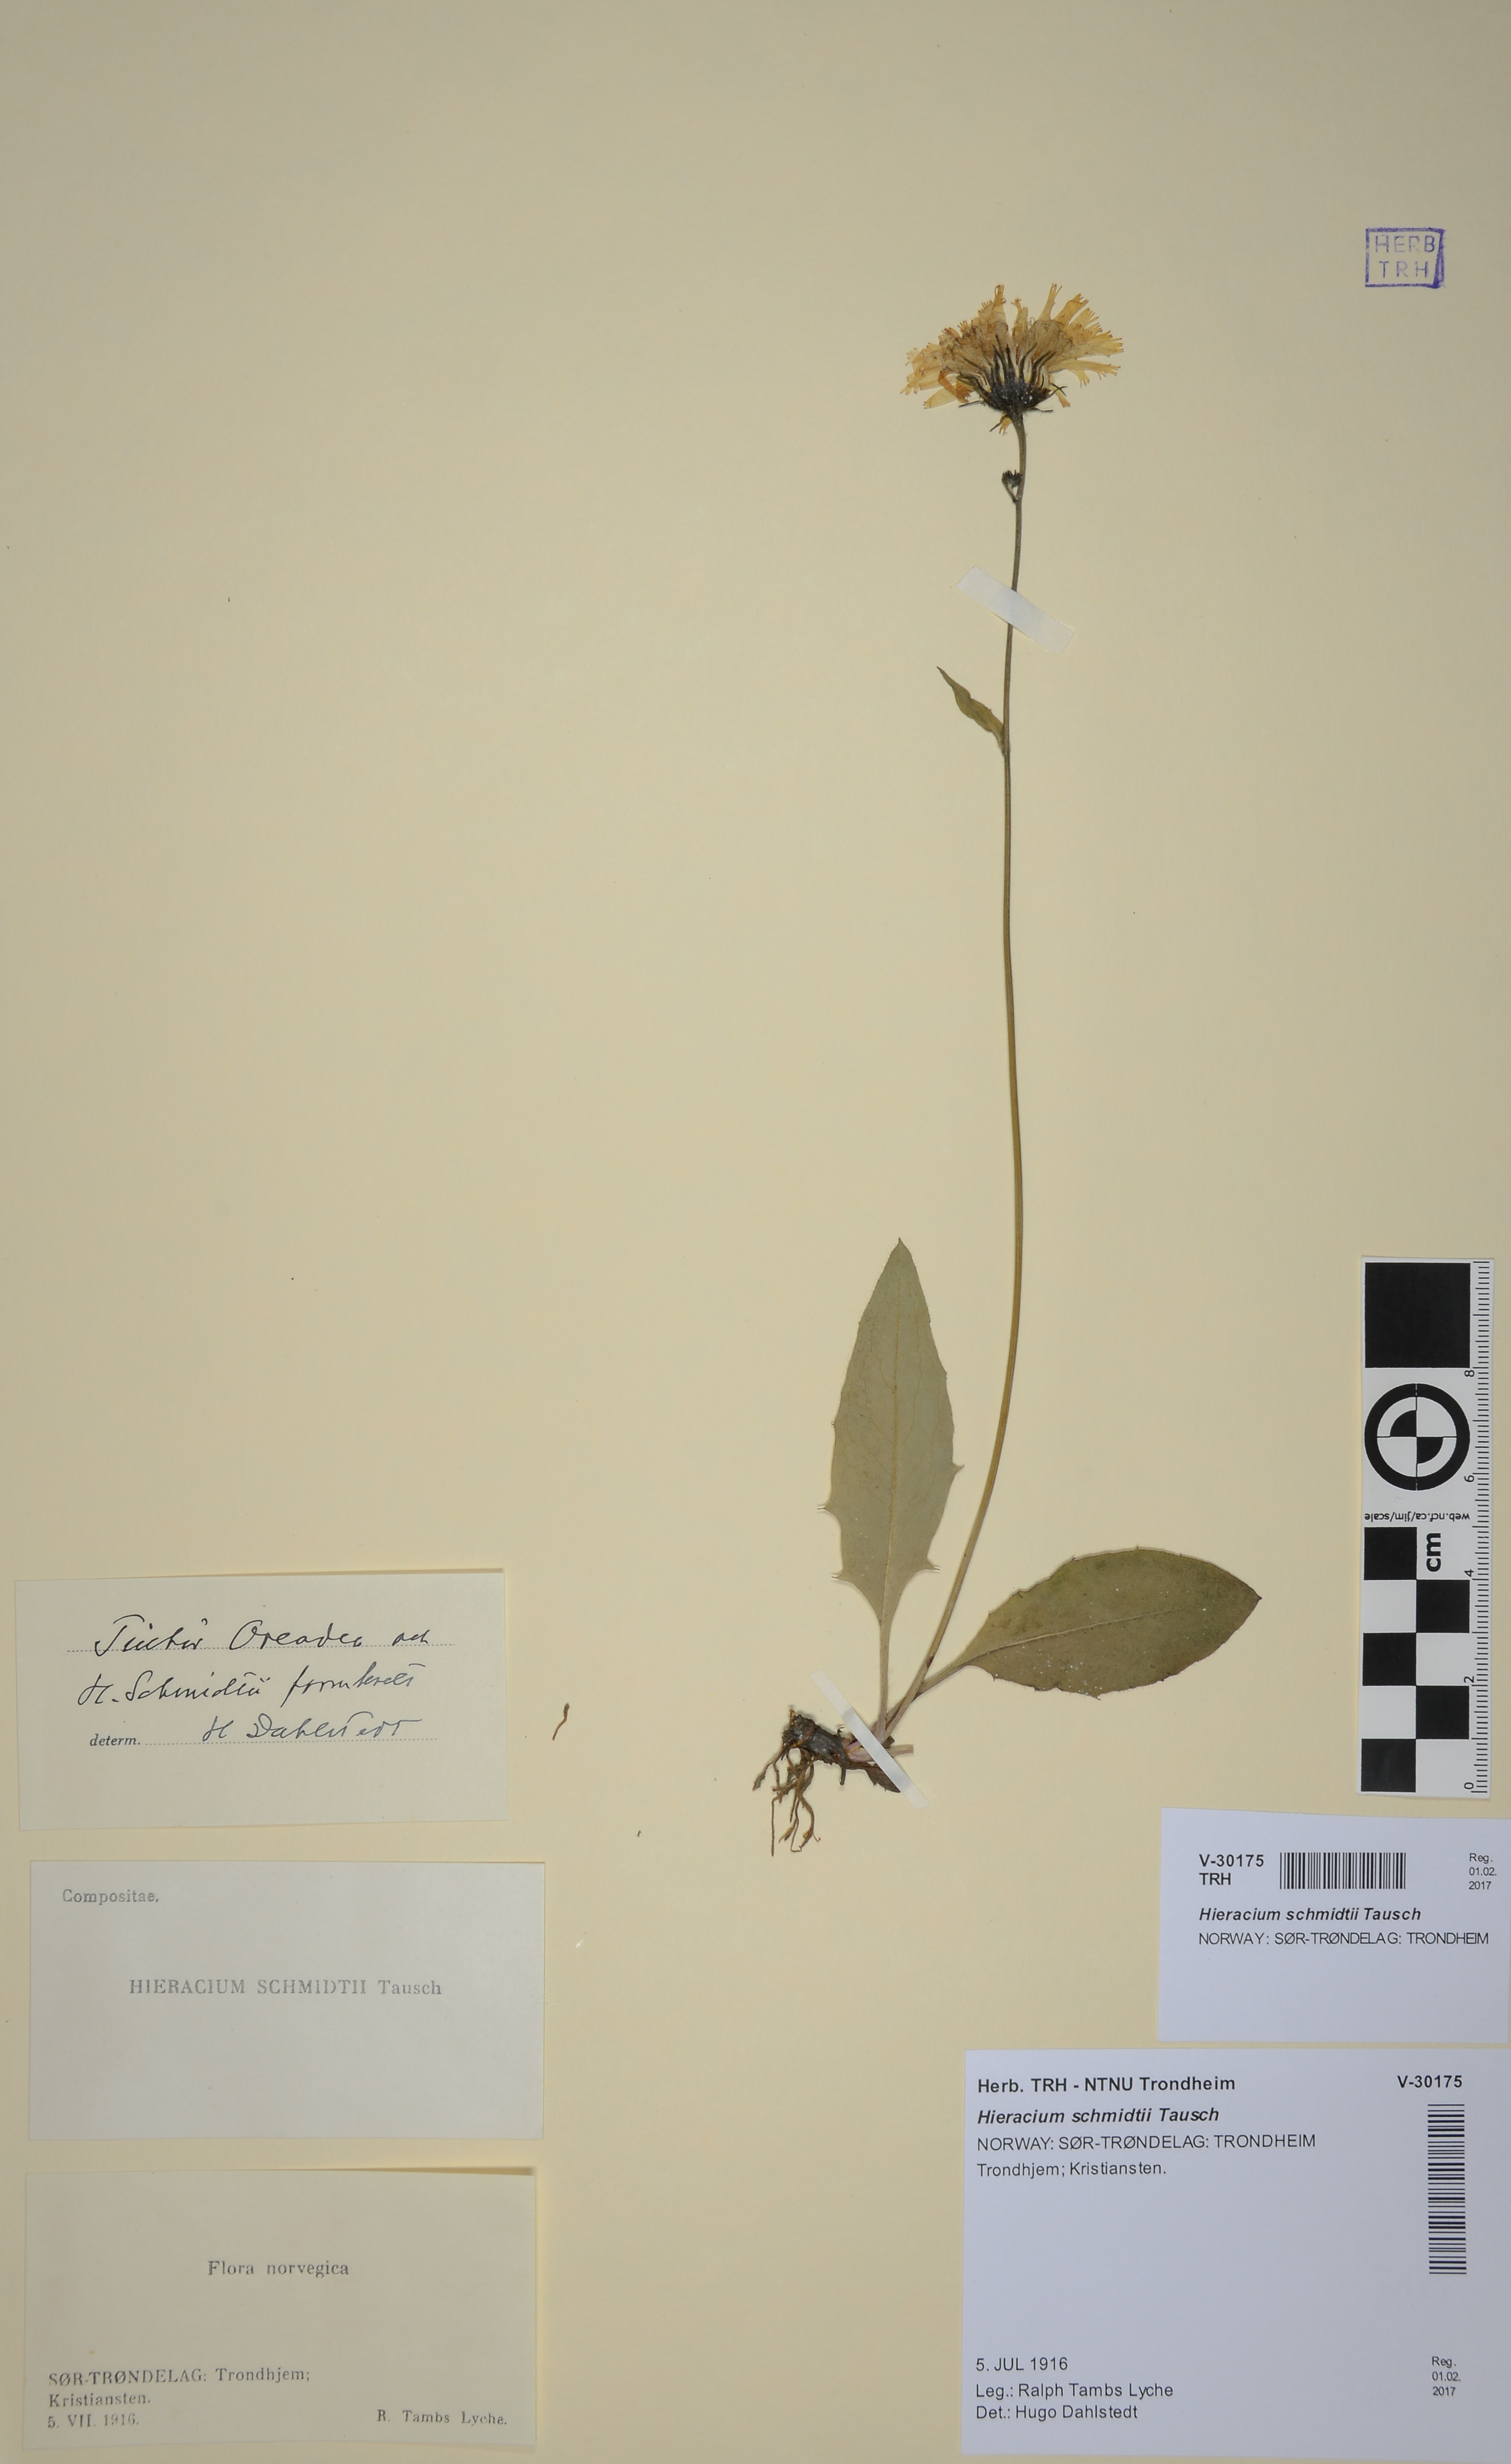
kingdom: Plantae
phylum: Tracheophyta
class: Magnoliopsida
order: Asterales
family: Asteraceae
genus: Hieracium
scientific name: Hieracium schmidtii
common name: Schmidt's hawkweed
